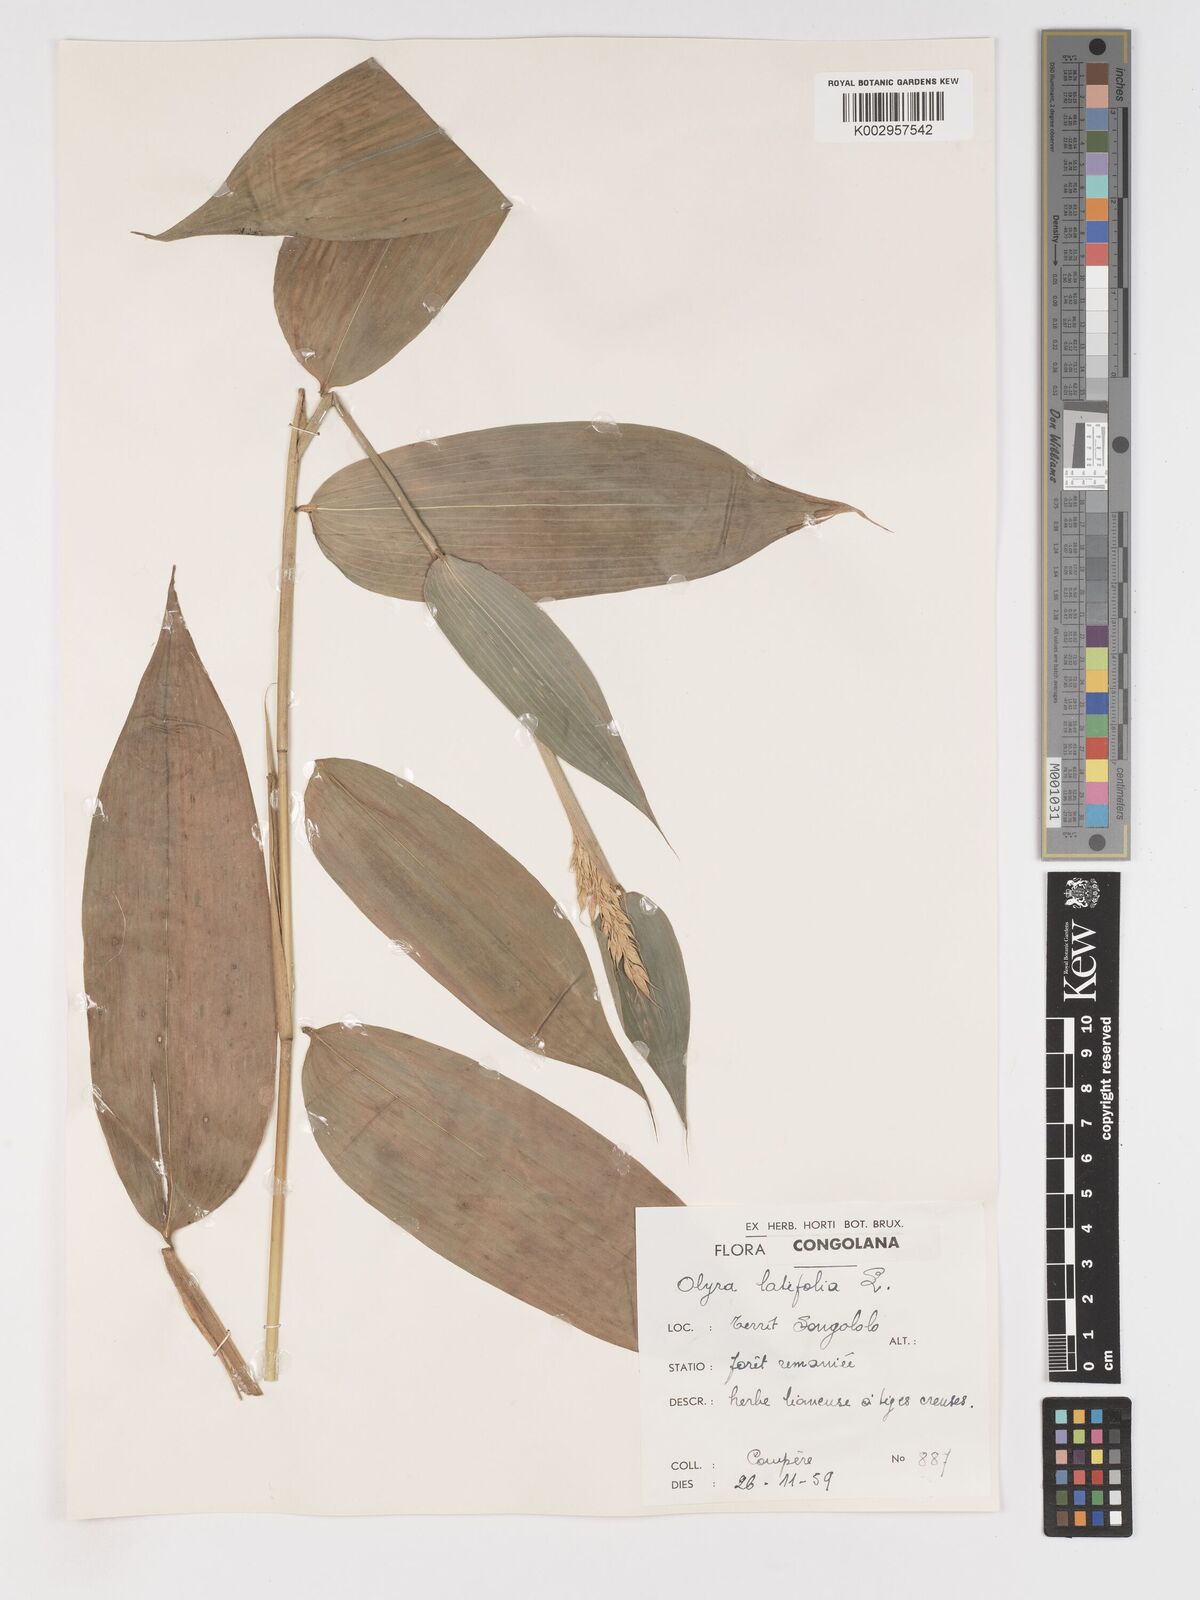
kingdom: Plantae
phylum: Tracheophyta
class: Liliopsida
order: Poales
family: Poaceae
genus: Olyra
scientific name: Olyra latifolia
